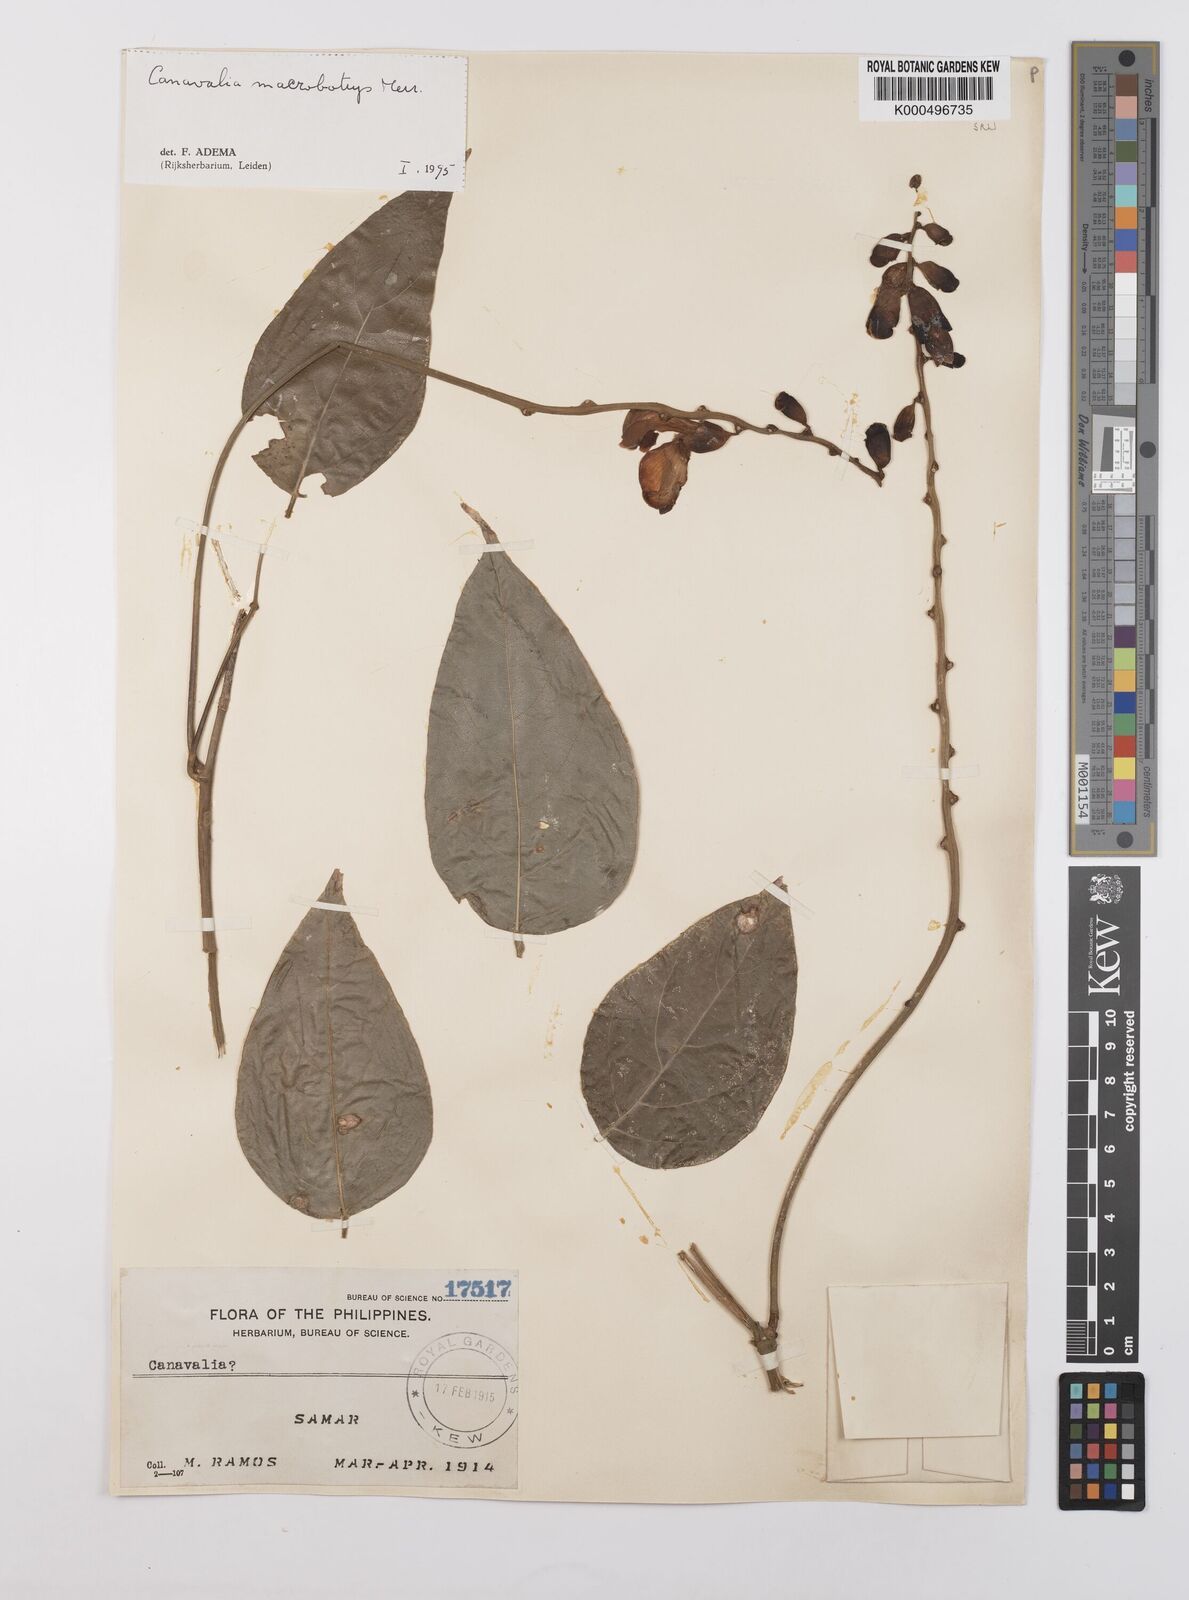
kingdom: Plantae
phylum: Tracheophyta
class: Magnoliopsida
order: Fabales
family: Fabaceae
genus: Canavalia
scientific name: Canavalia macrobotrys
